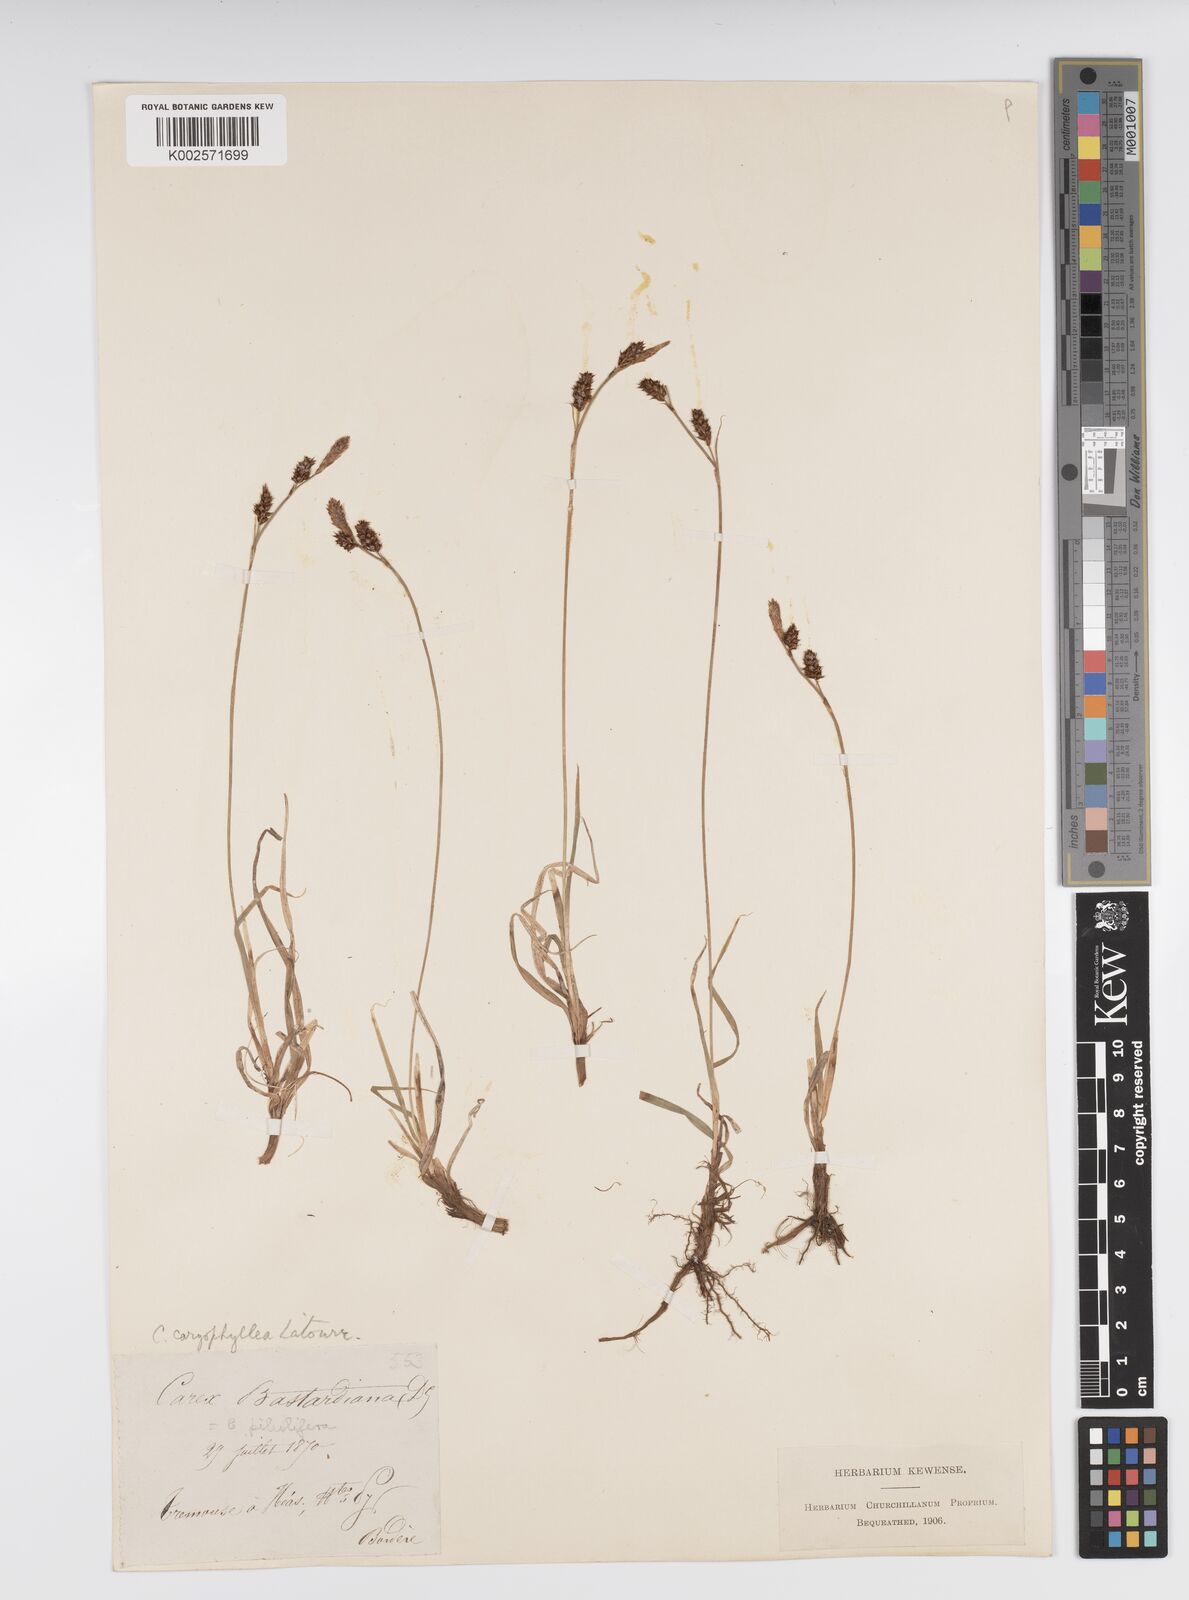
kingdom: Plantae
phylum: Tracheophyta
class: Liliopsida
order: Poales
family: Cyperaceae
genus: Carex
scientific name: Carex caryophyllea
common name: Spring sedge
